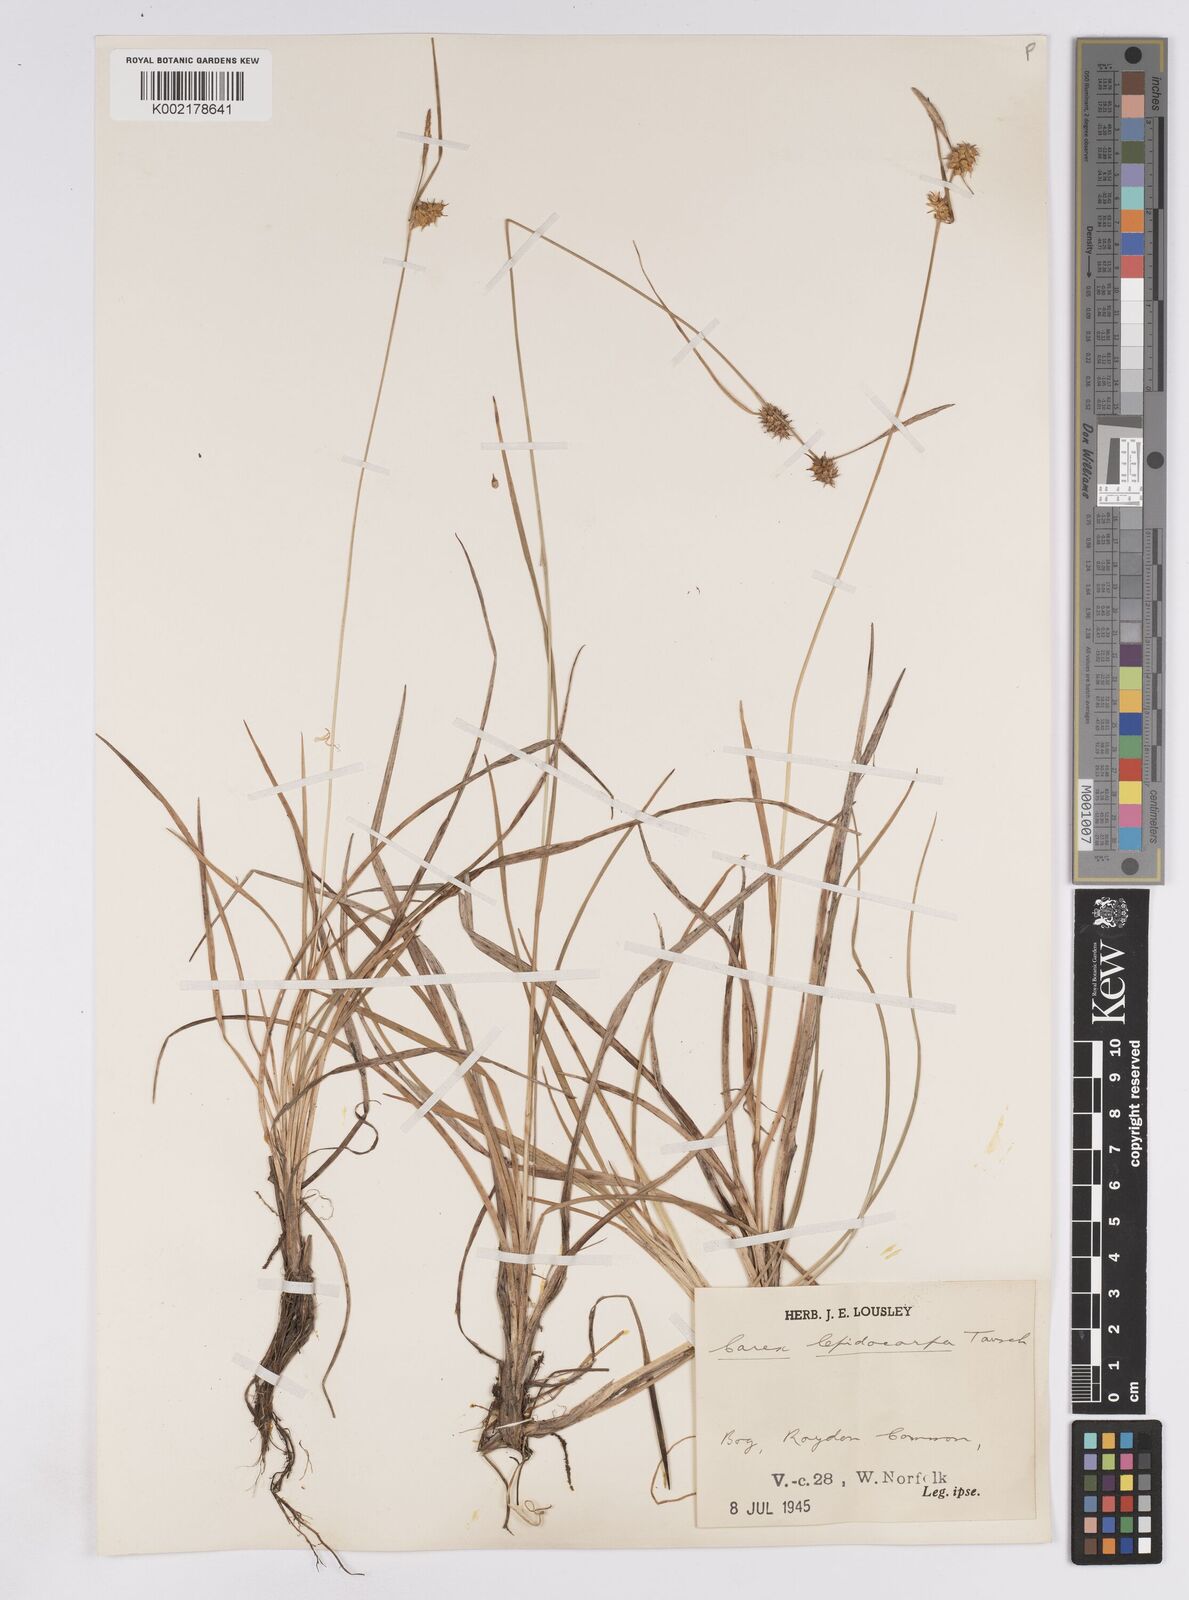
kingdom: Plantae
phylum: Tracheophyta
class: Liliopsida
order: Poales
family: Cyperaceae
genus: Carex
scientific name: Carex lepidocarpa
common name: Long-stalked yellow-sedge
